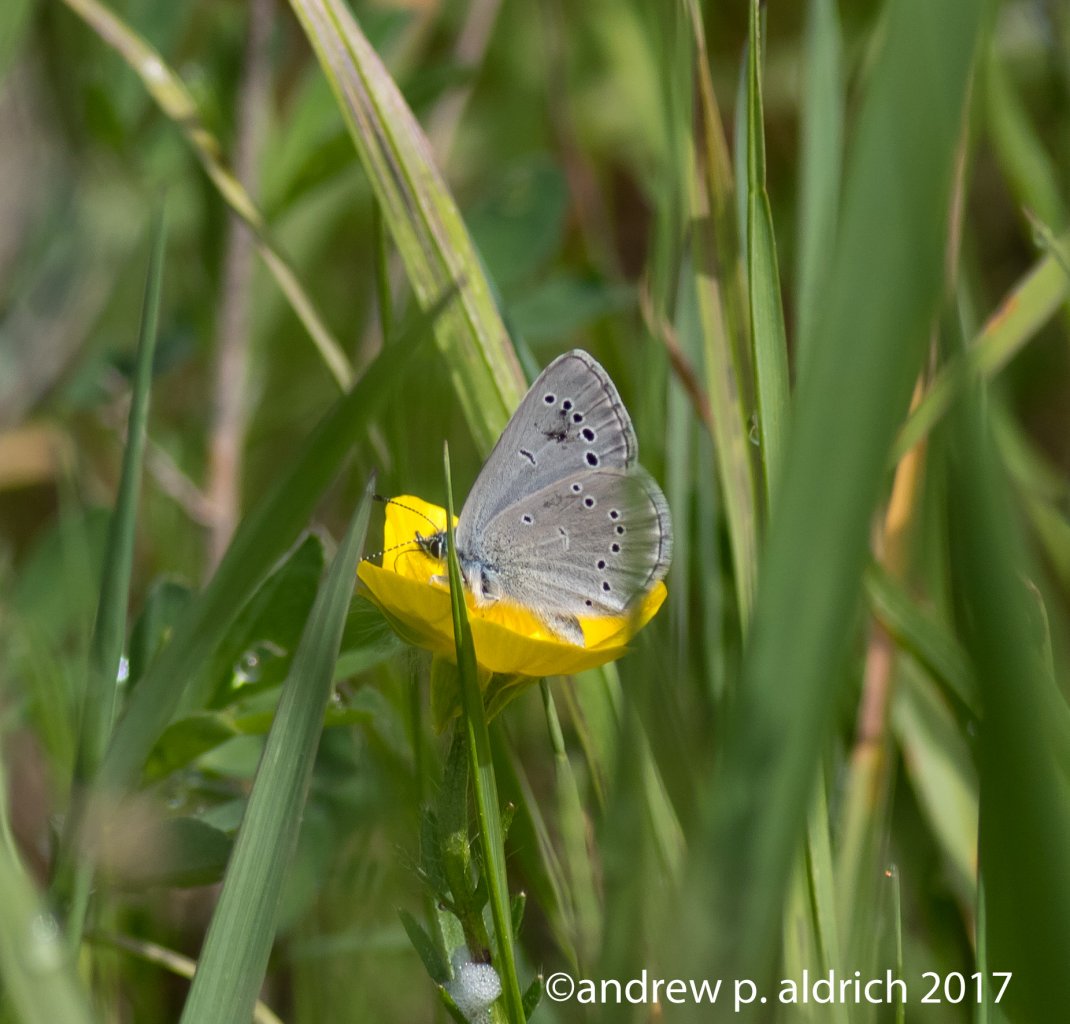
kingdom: Animalia
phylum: Arthropoda
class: Insecta
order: Lepidoptera
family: Lycaenidae
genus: Glaucopsyche
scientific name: Glaucopsyche lygdamus
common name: Silvery Blue
